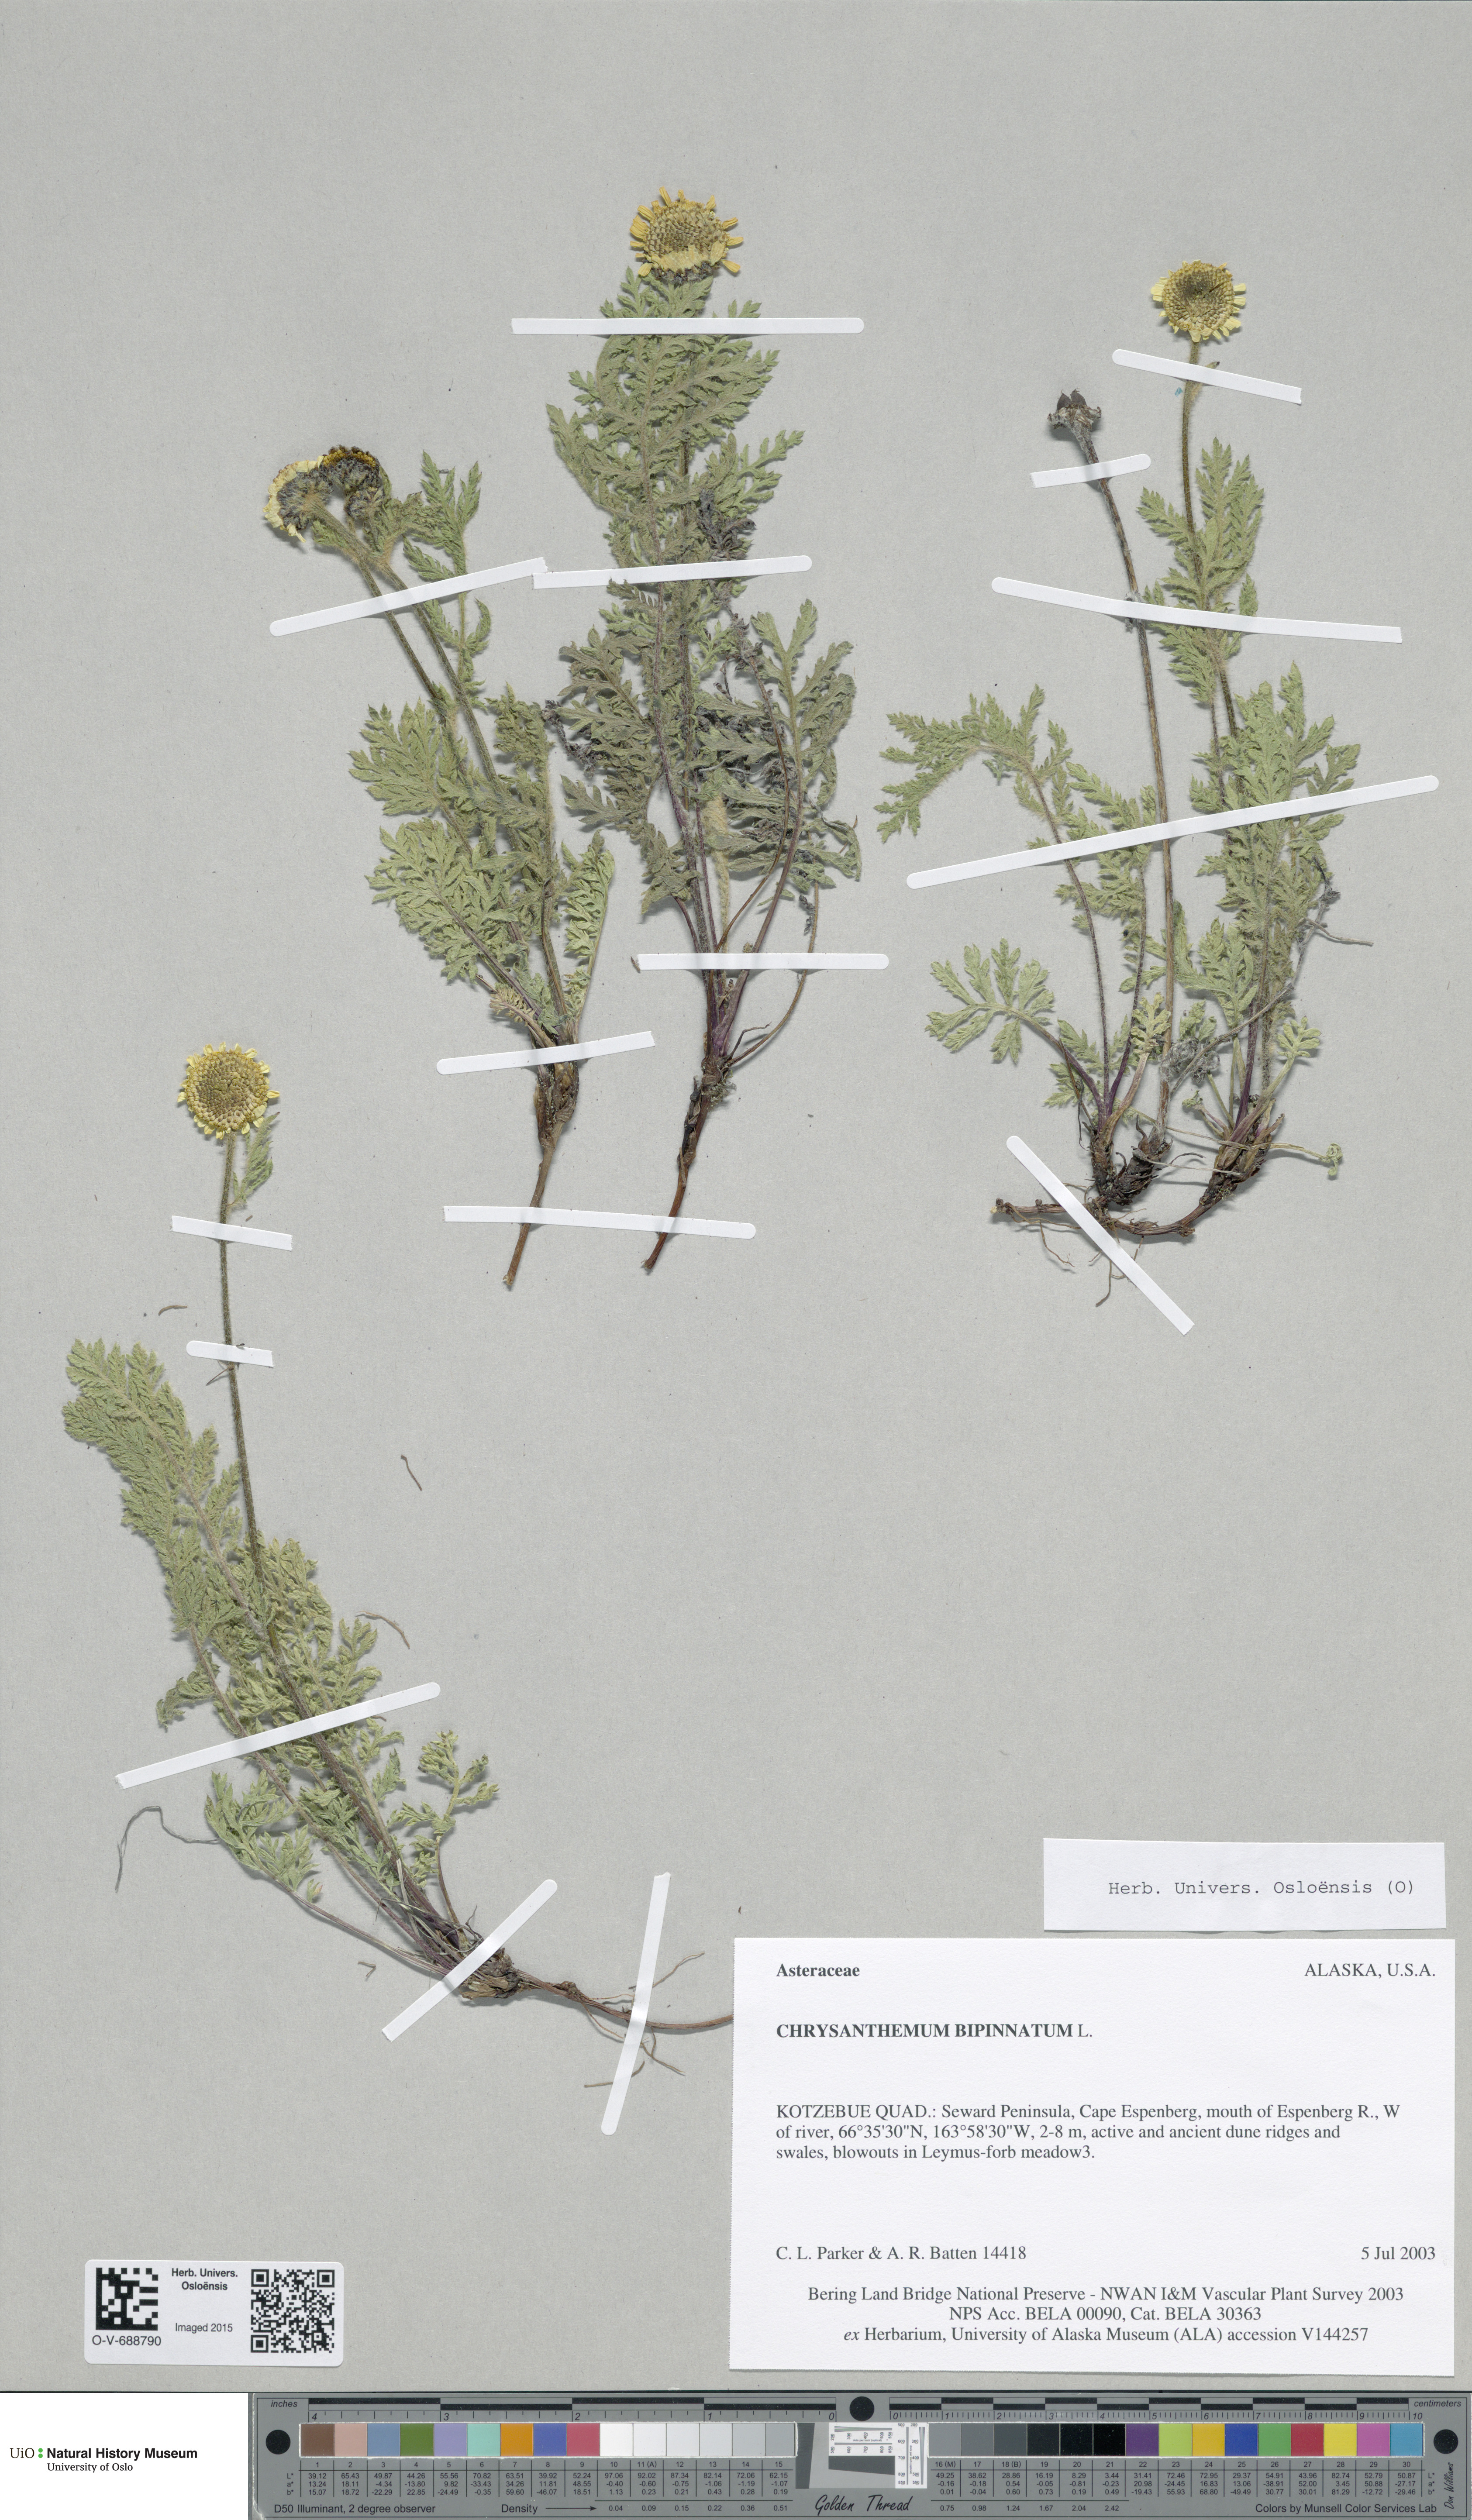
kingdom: Plantae
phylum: Tracheophyta
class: Magnoliopsida
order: Asterales
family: Asteraceae
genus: Tanacetum
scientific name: Tanacetum bipinnatum
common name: Dwarf tansy
